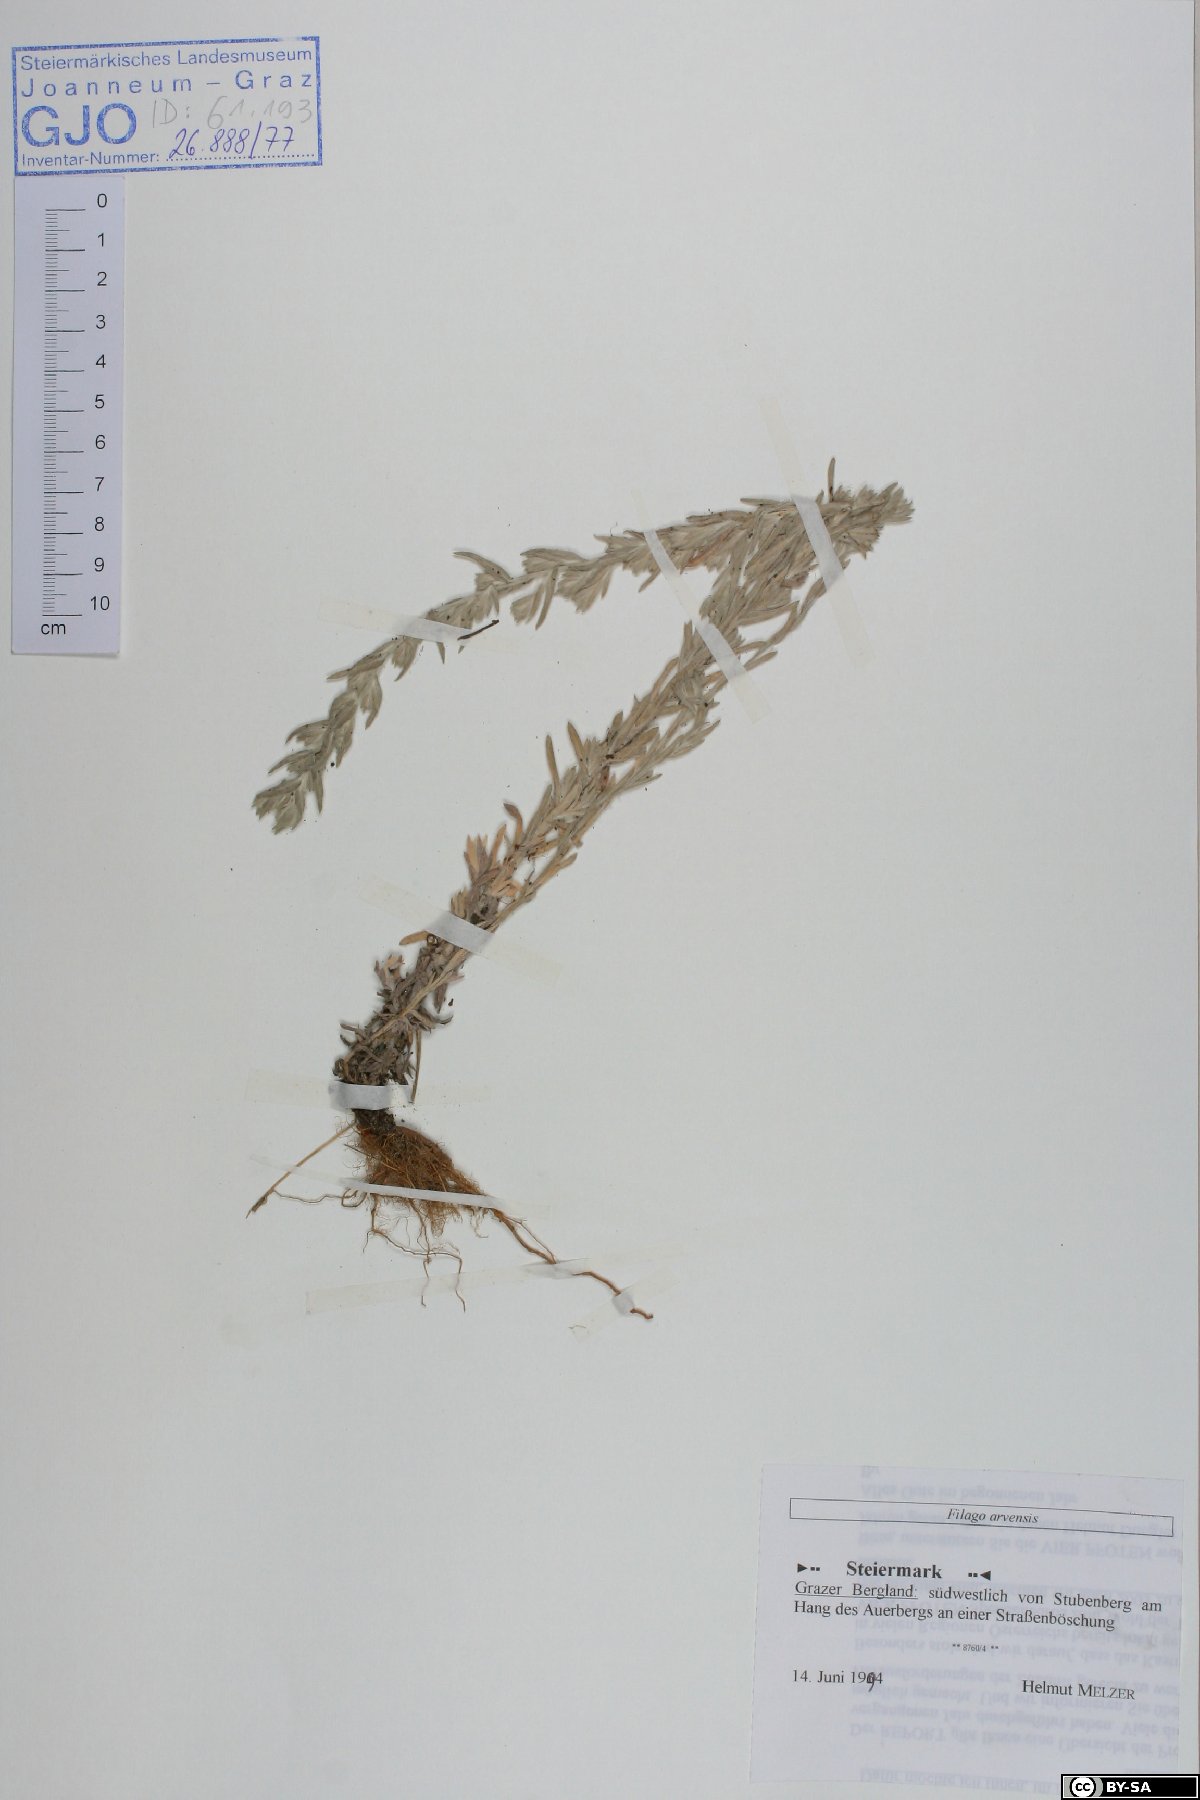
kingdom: Plantae
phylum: Tracheophyta
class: Magnoliopsida
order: Asterales
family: Asteraceae
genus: Filago
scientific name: Filago arvensis
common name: Field cudweed
